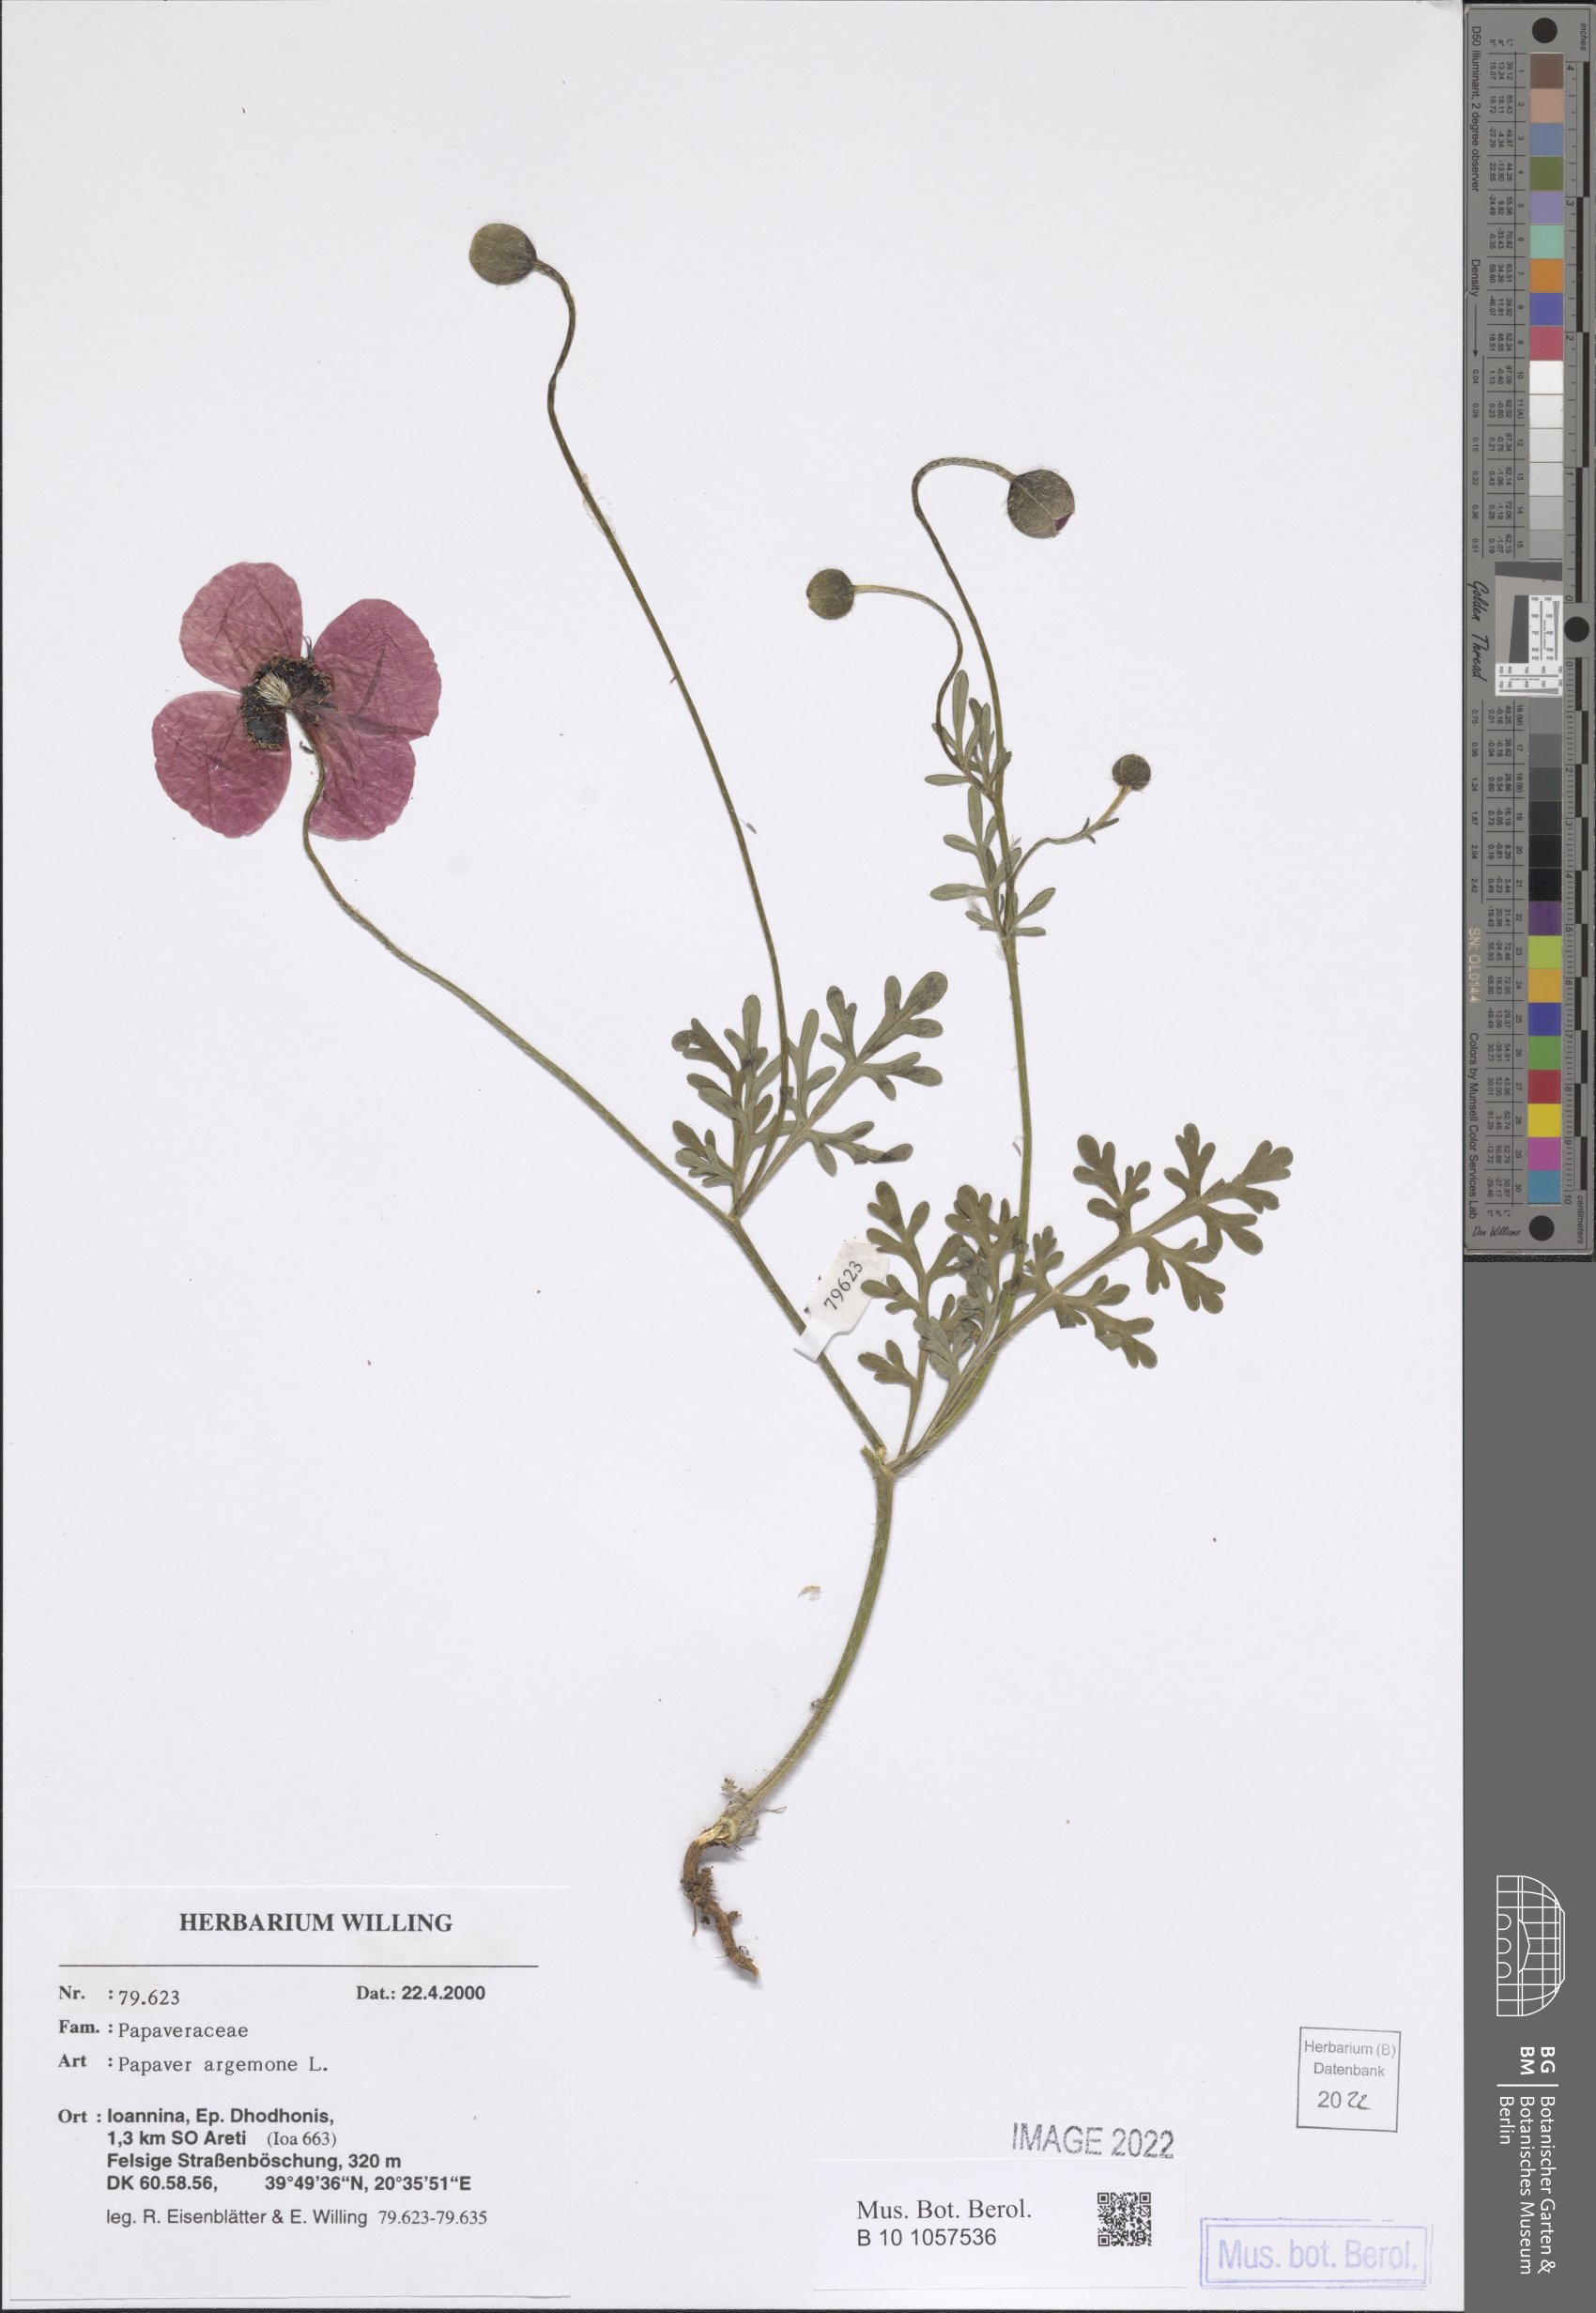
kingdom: Plantae
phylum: Tracheophyta
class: Magnoliopsida
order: Ranunculales
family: Papaveraceae
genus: Roemeria
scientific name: Roemeria argemone
